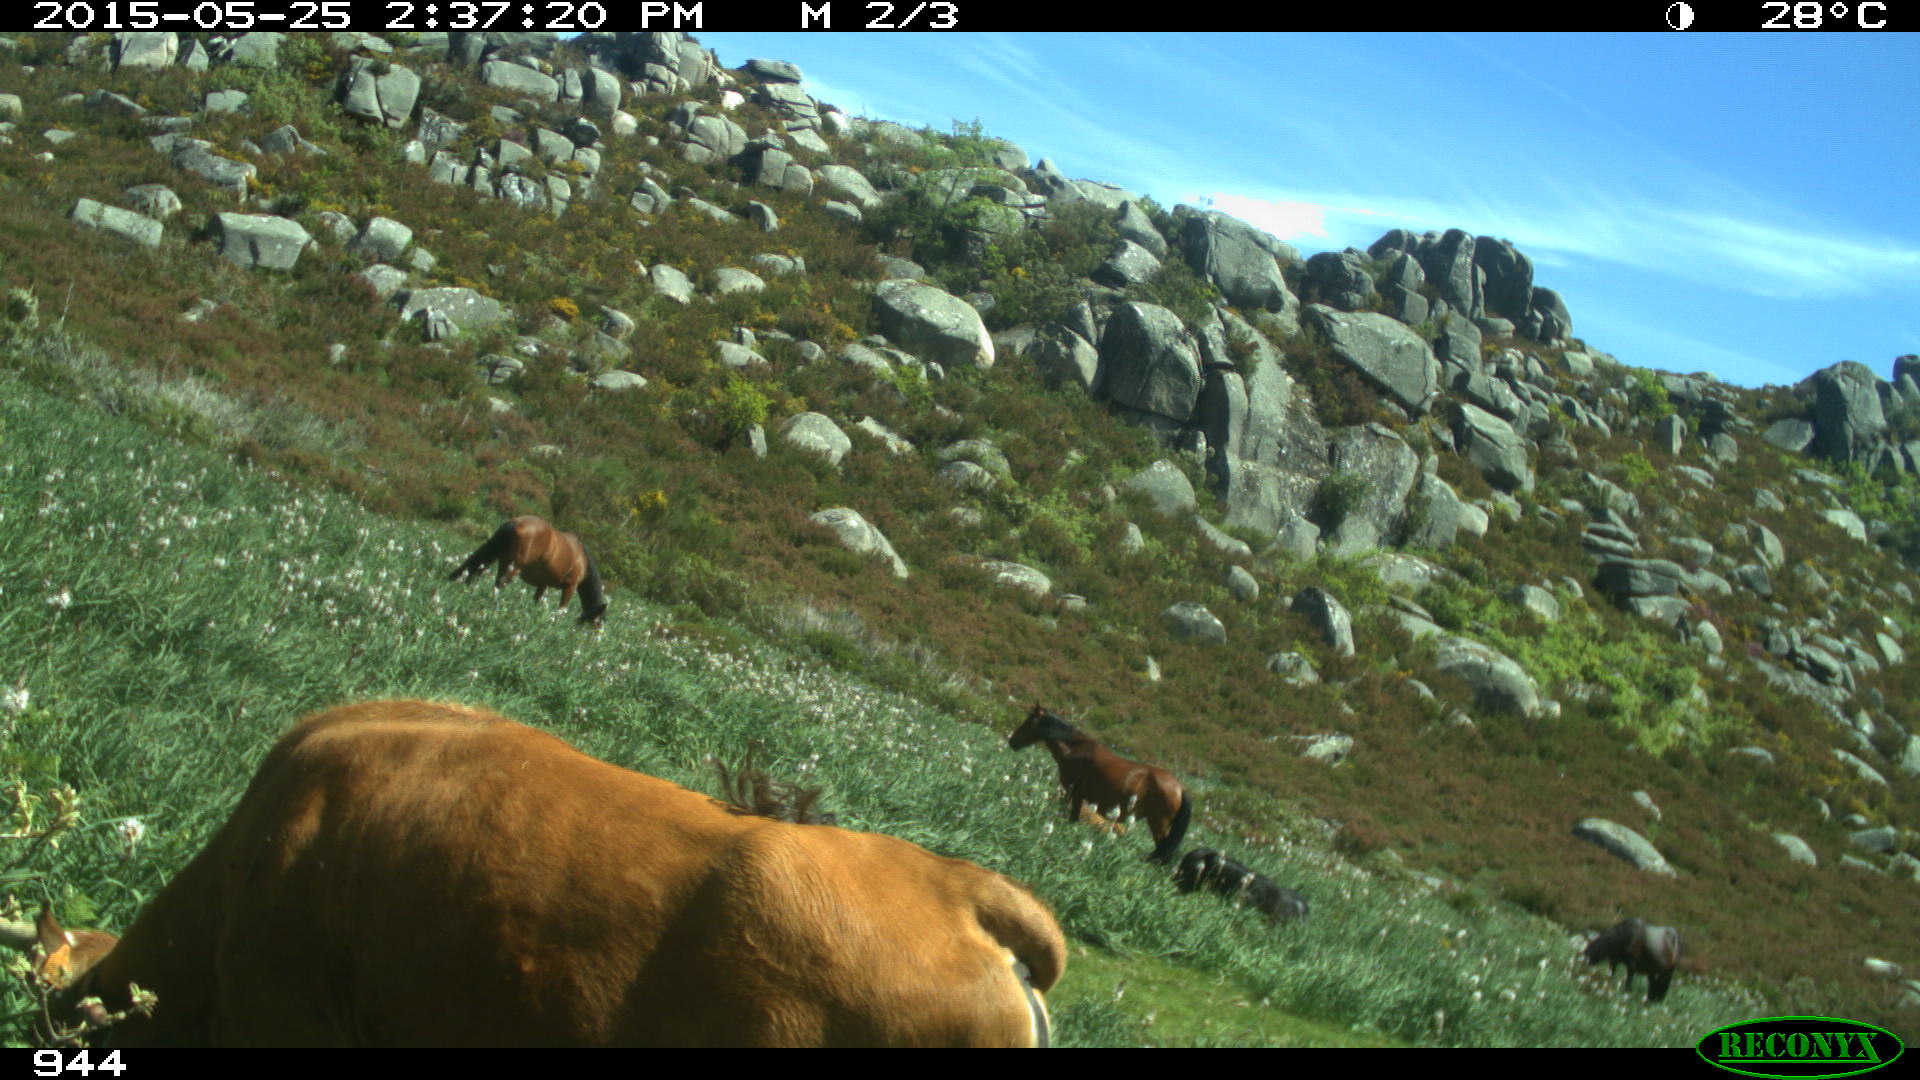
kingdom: Animalia
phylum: Chordata
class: Mammalia
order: Perissodactyla
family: Equidae
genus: Equus
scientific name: Equus caballus
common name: Horse
